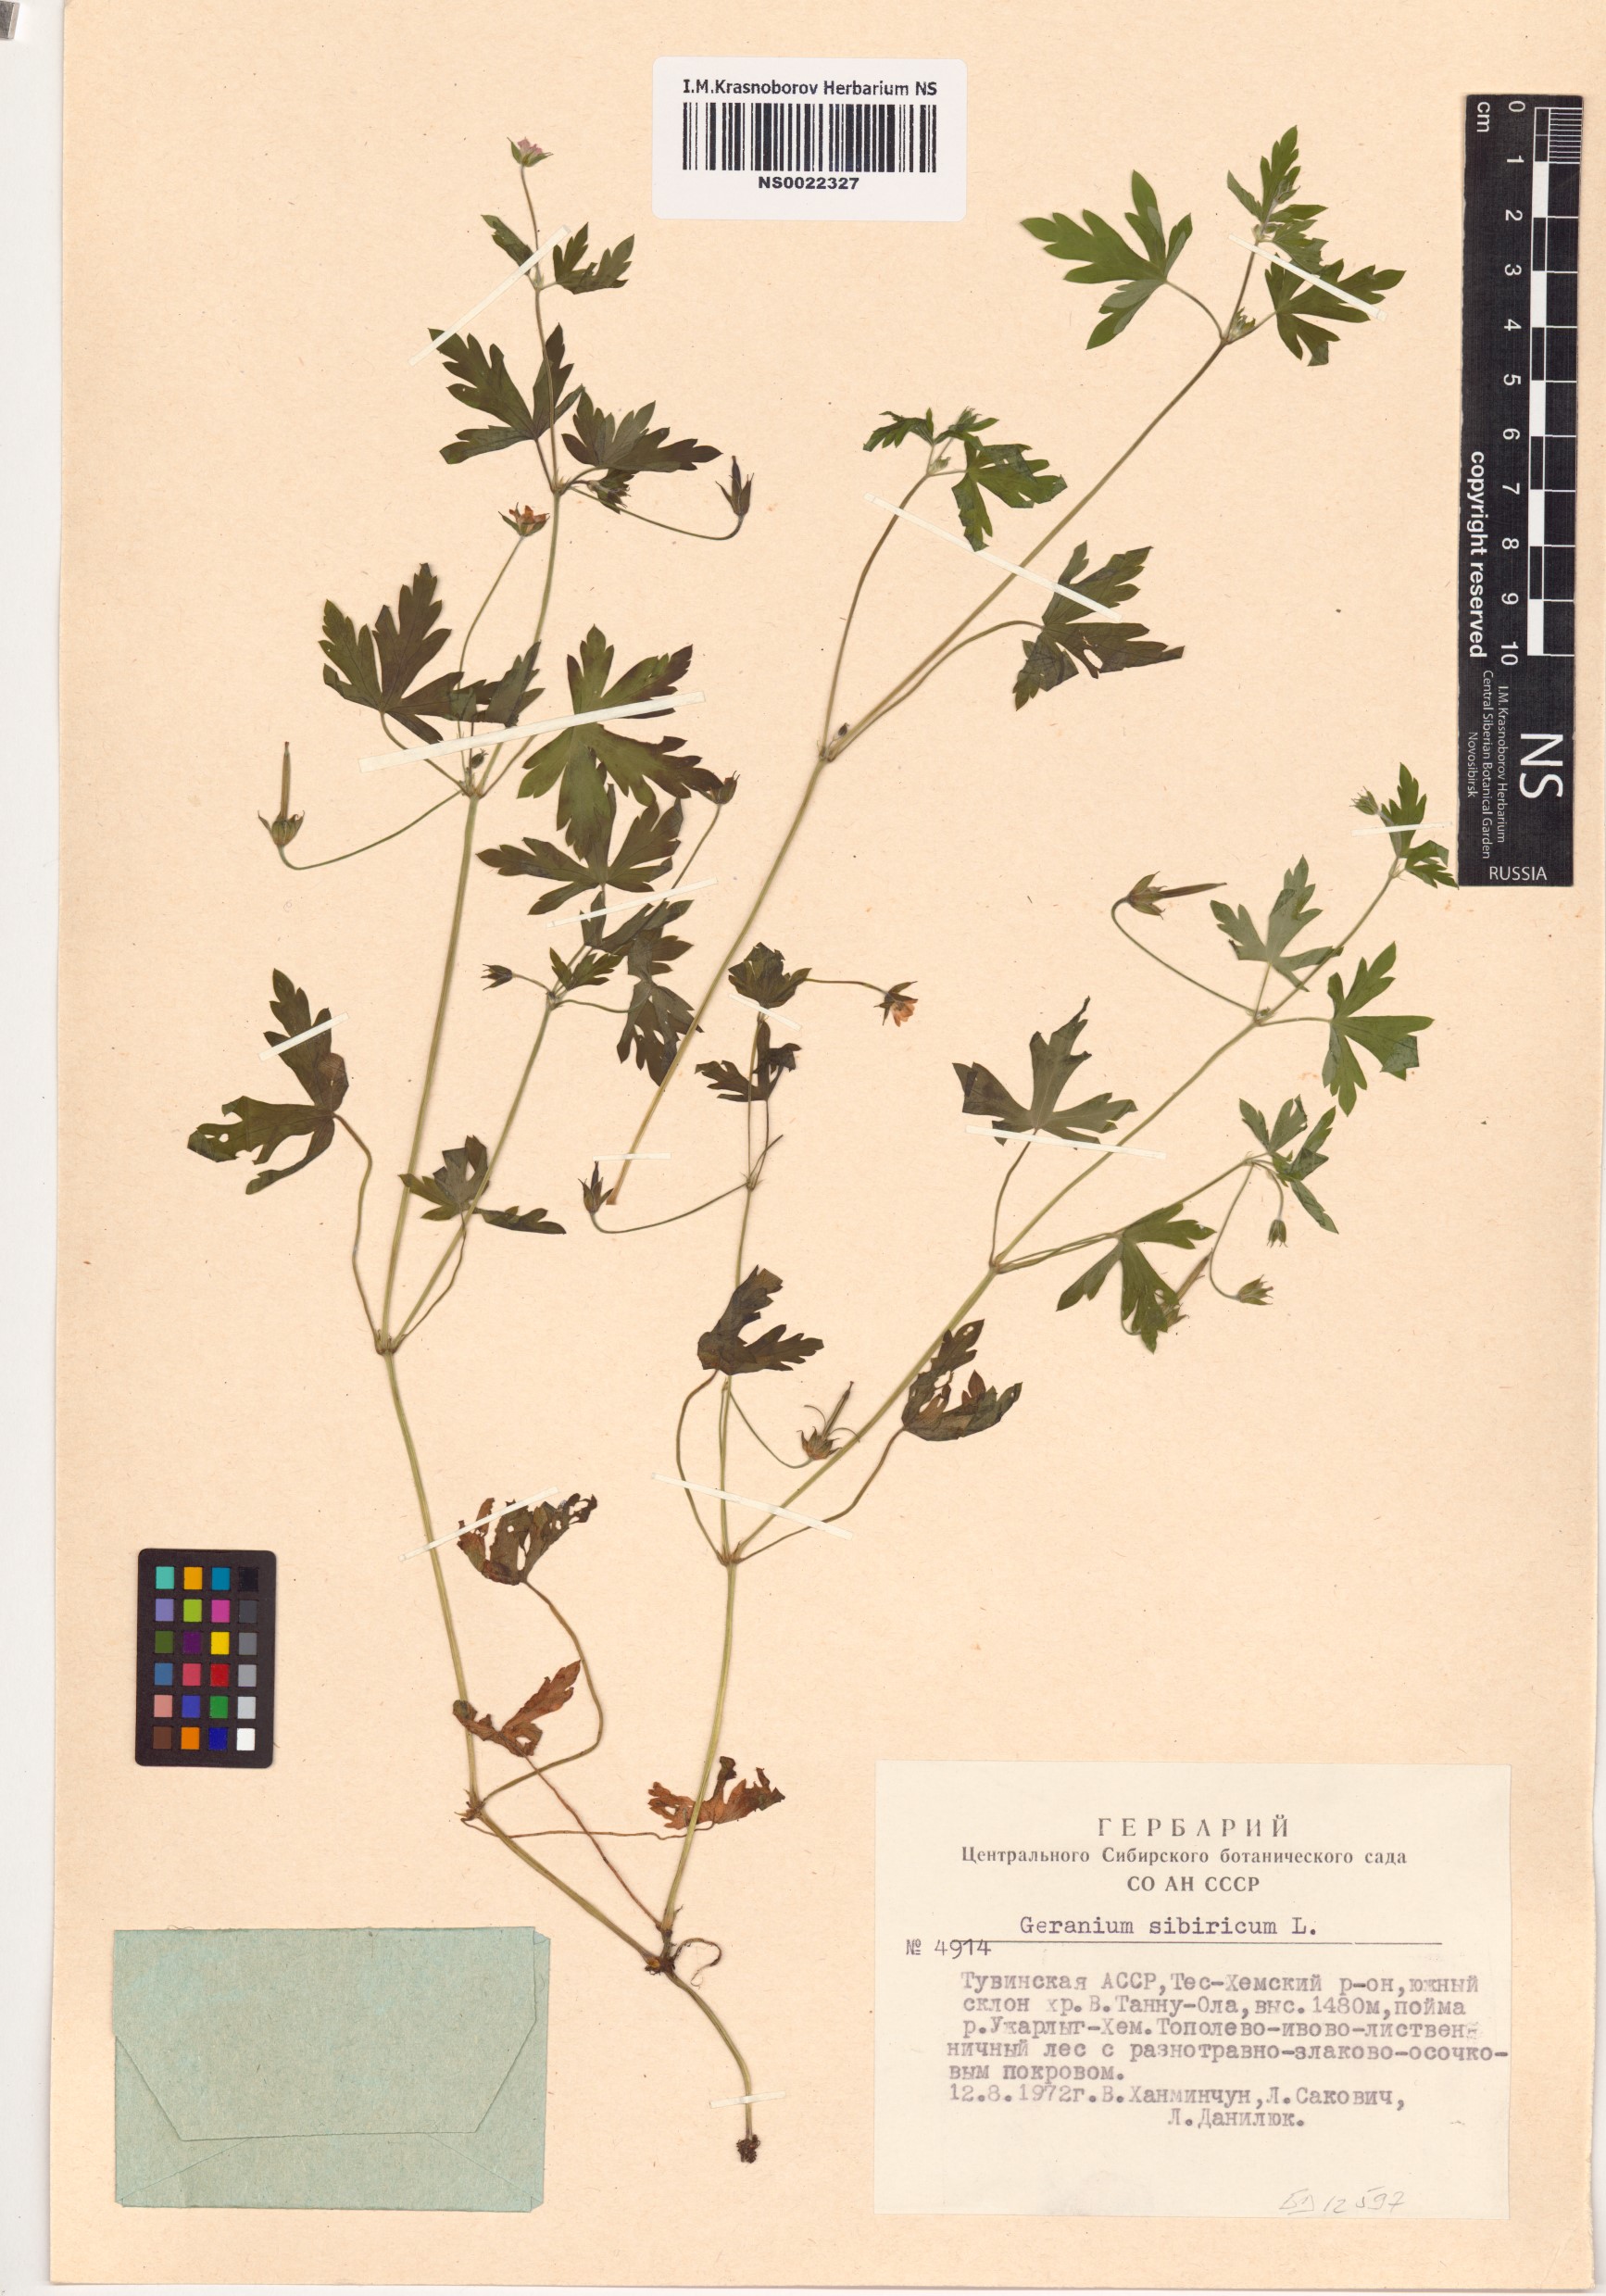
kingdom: Plantae
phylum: Tracheophyta
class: Magnoliopsida
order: Geraniales
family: Geraniaceae
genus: Geranium
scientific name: Geranium sibiricum
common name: Siberian crane's-bill
